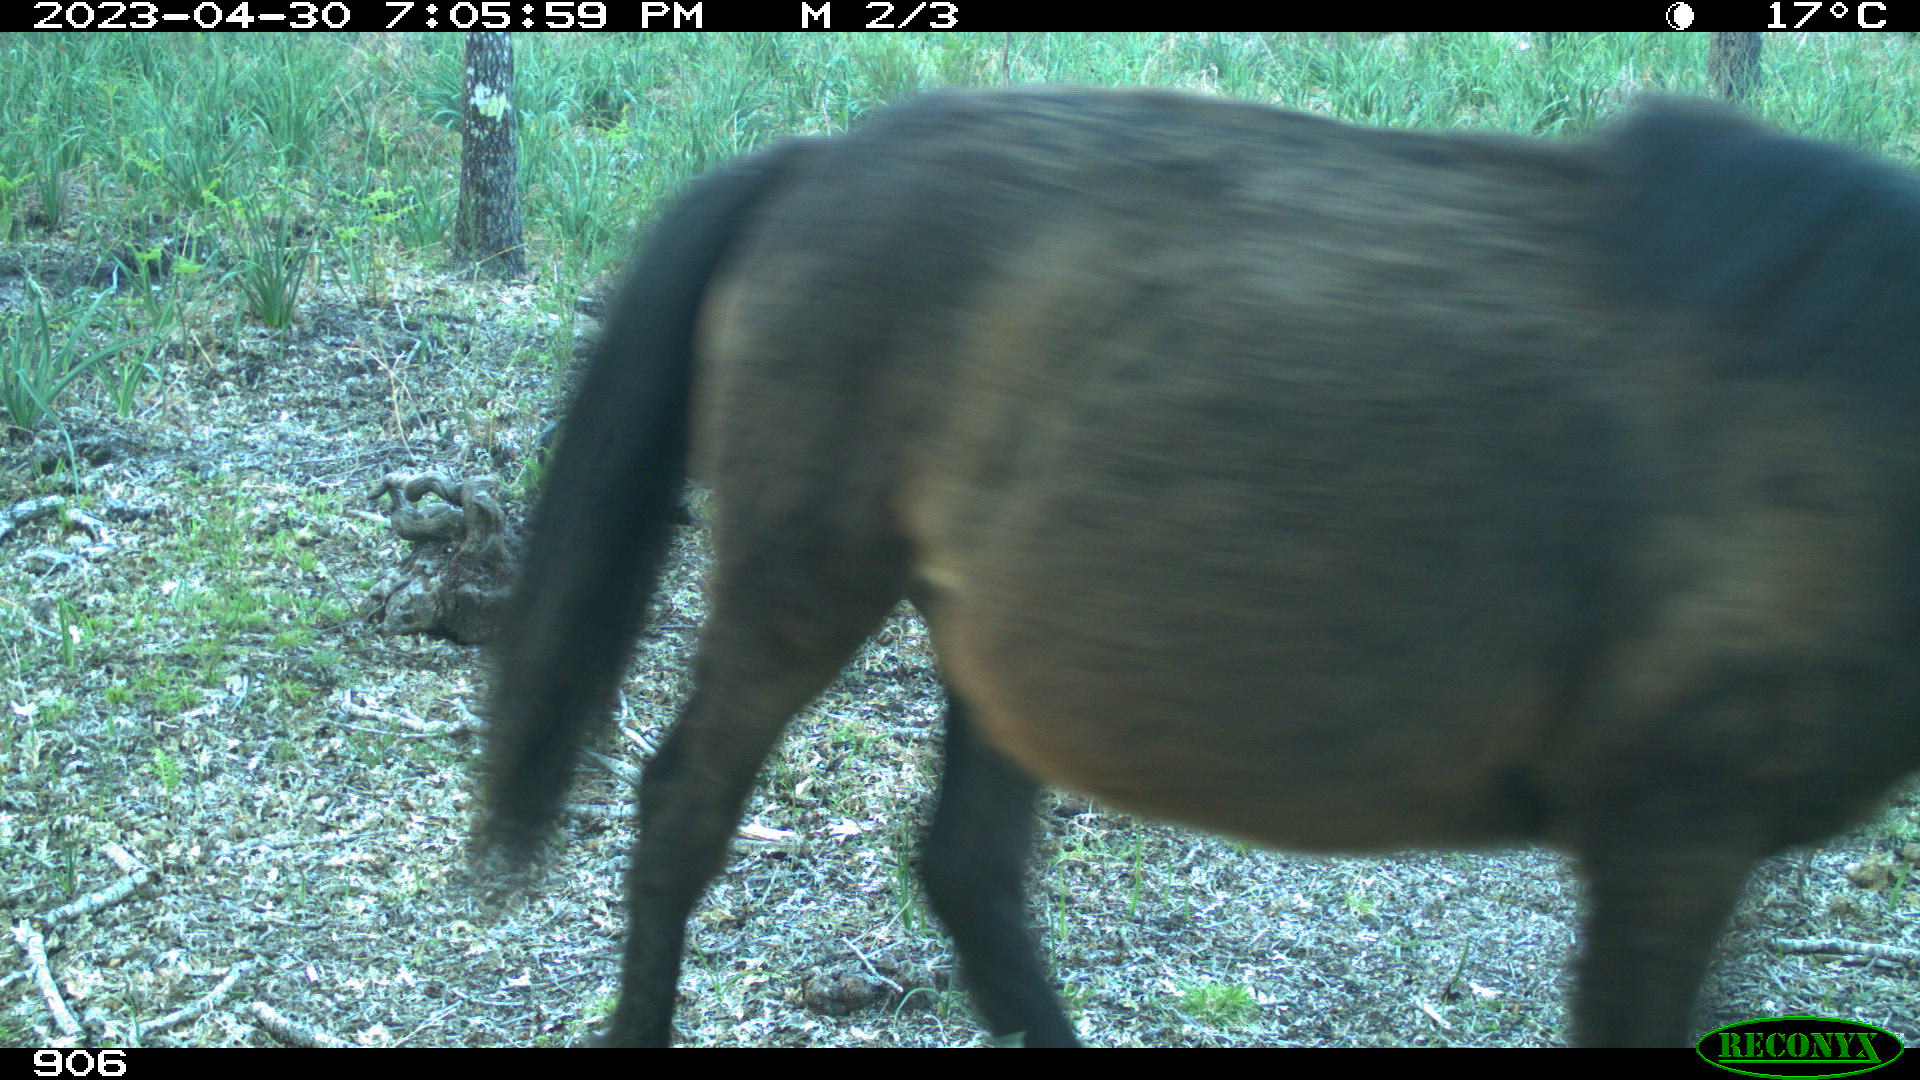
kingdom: Animalia
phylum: Chordata
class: Mammalia
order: Perissodactyla
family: Equidae
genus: Equus
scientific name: Equus caballus
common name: Horse
